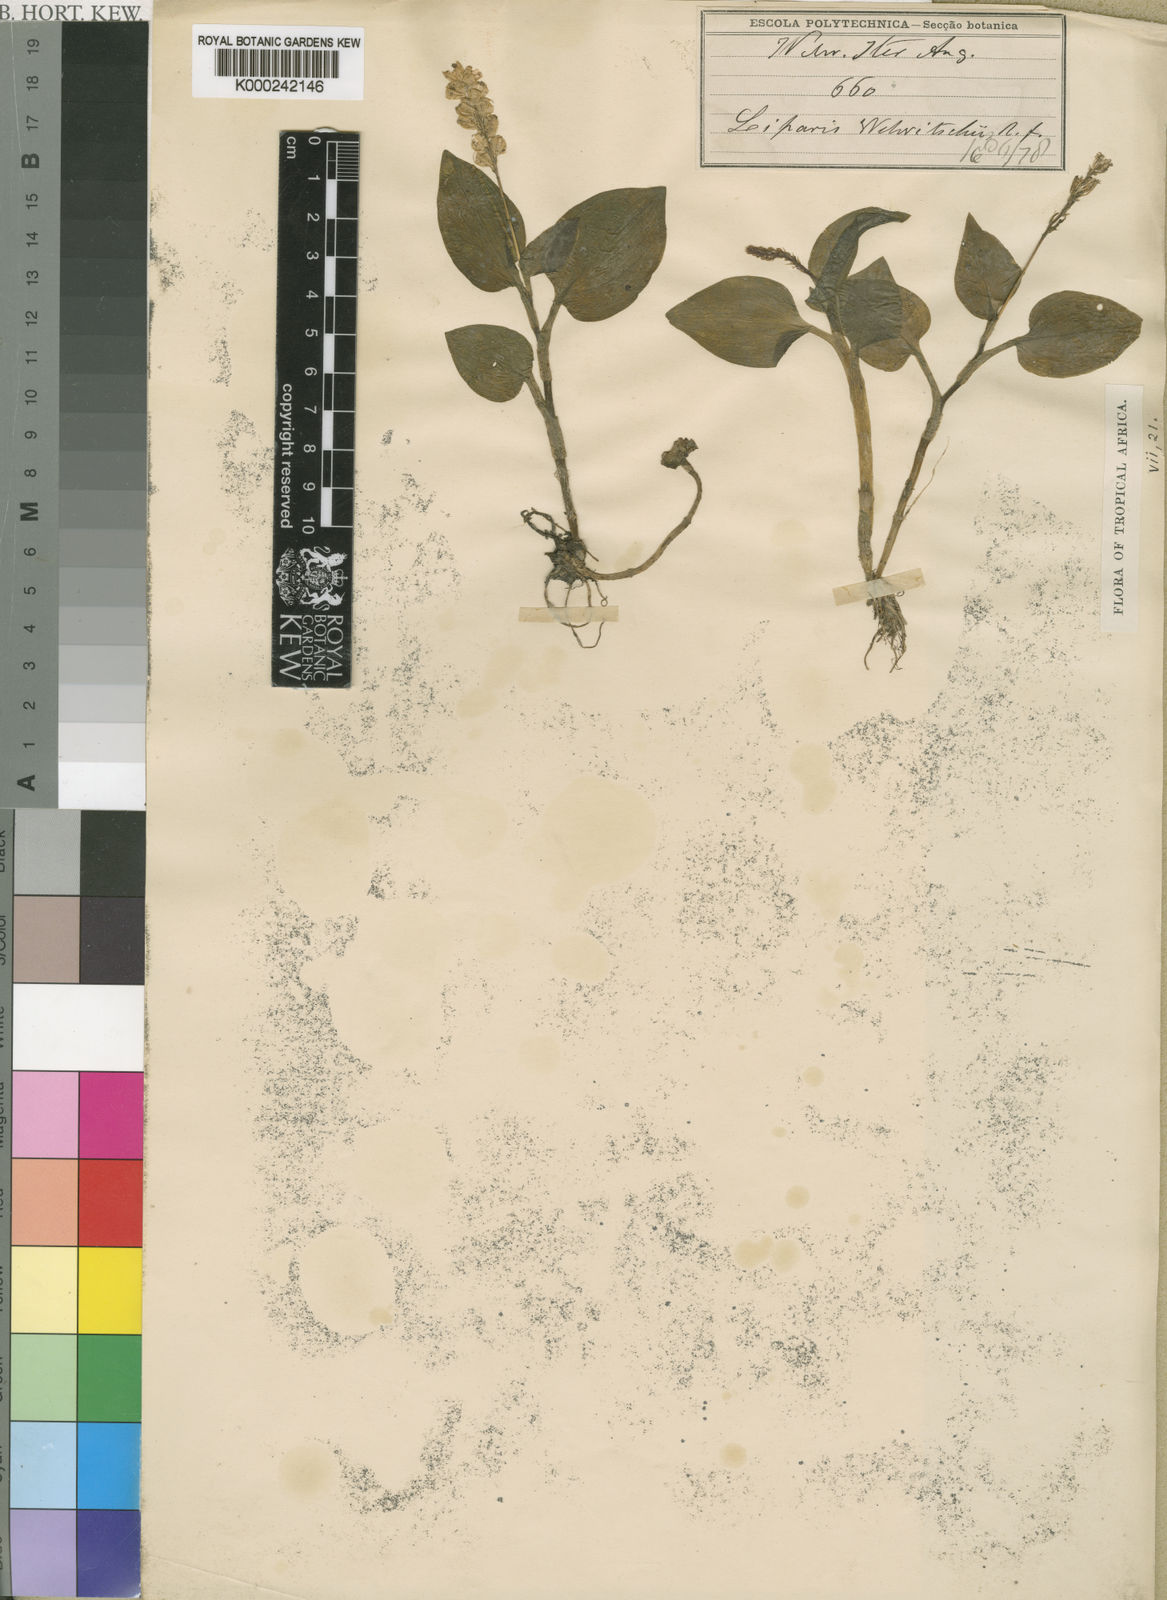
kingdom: Plantae
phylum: Tracheophyta
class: Liliopsida
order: Asparagales
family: Orchidaceae
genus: Malaxis
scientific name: Malaxis welwitschii
